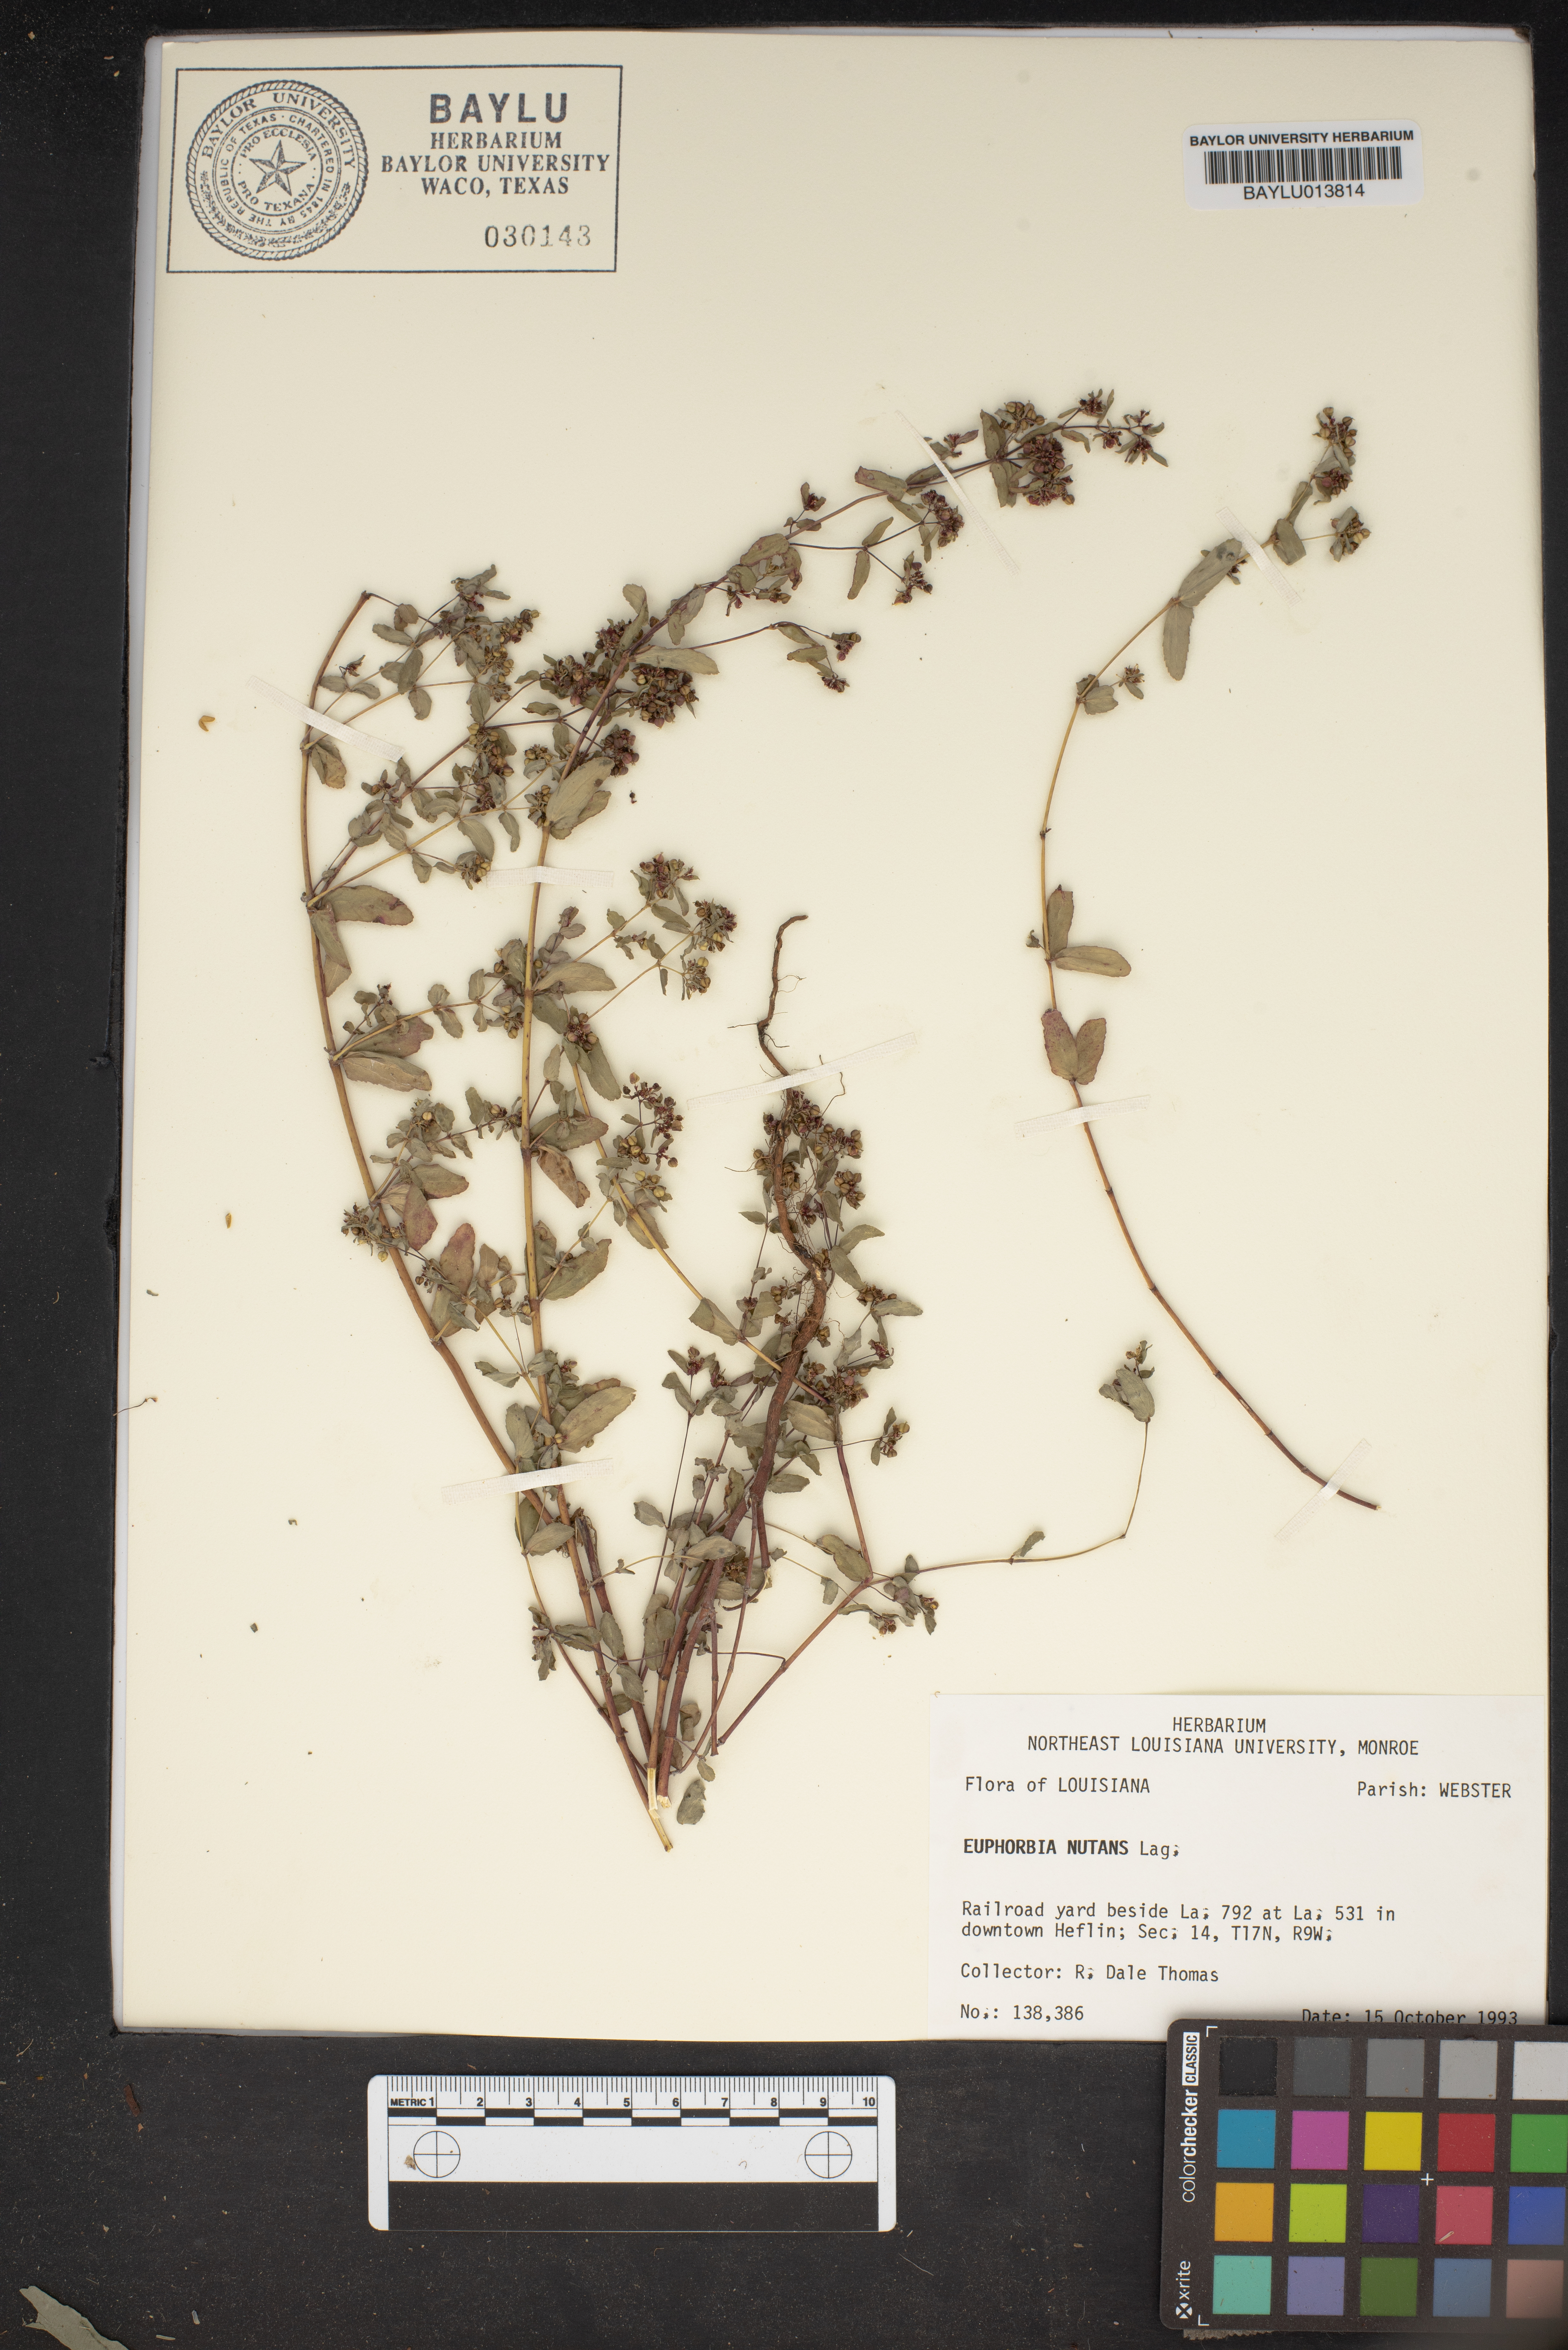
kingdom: Plantae
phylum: Tracheophyta
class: Magnoliopsida
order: Malpighiales
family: Euphorbiaceae
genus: Euphorbia
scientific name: Euphorbia nutans
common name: Eyebane
